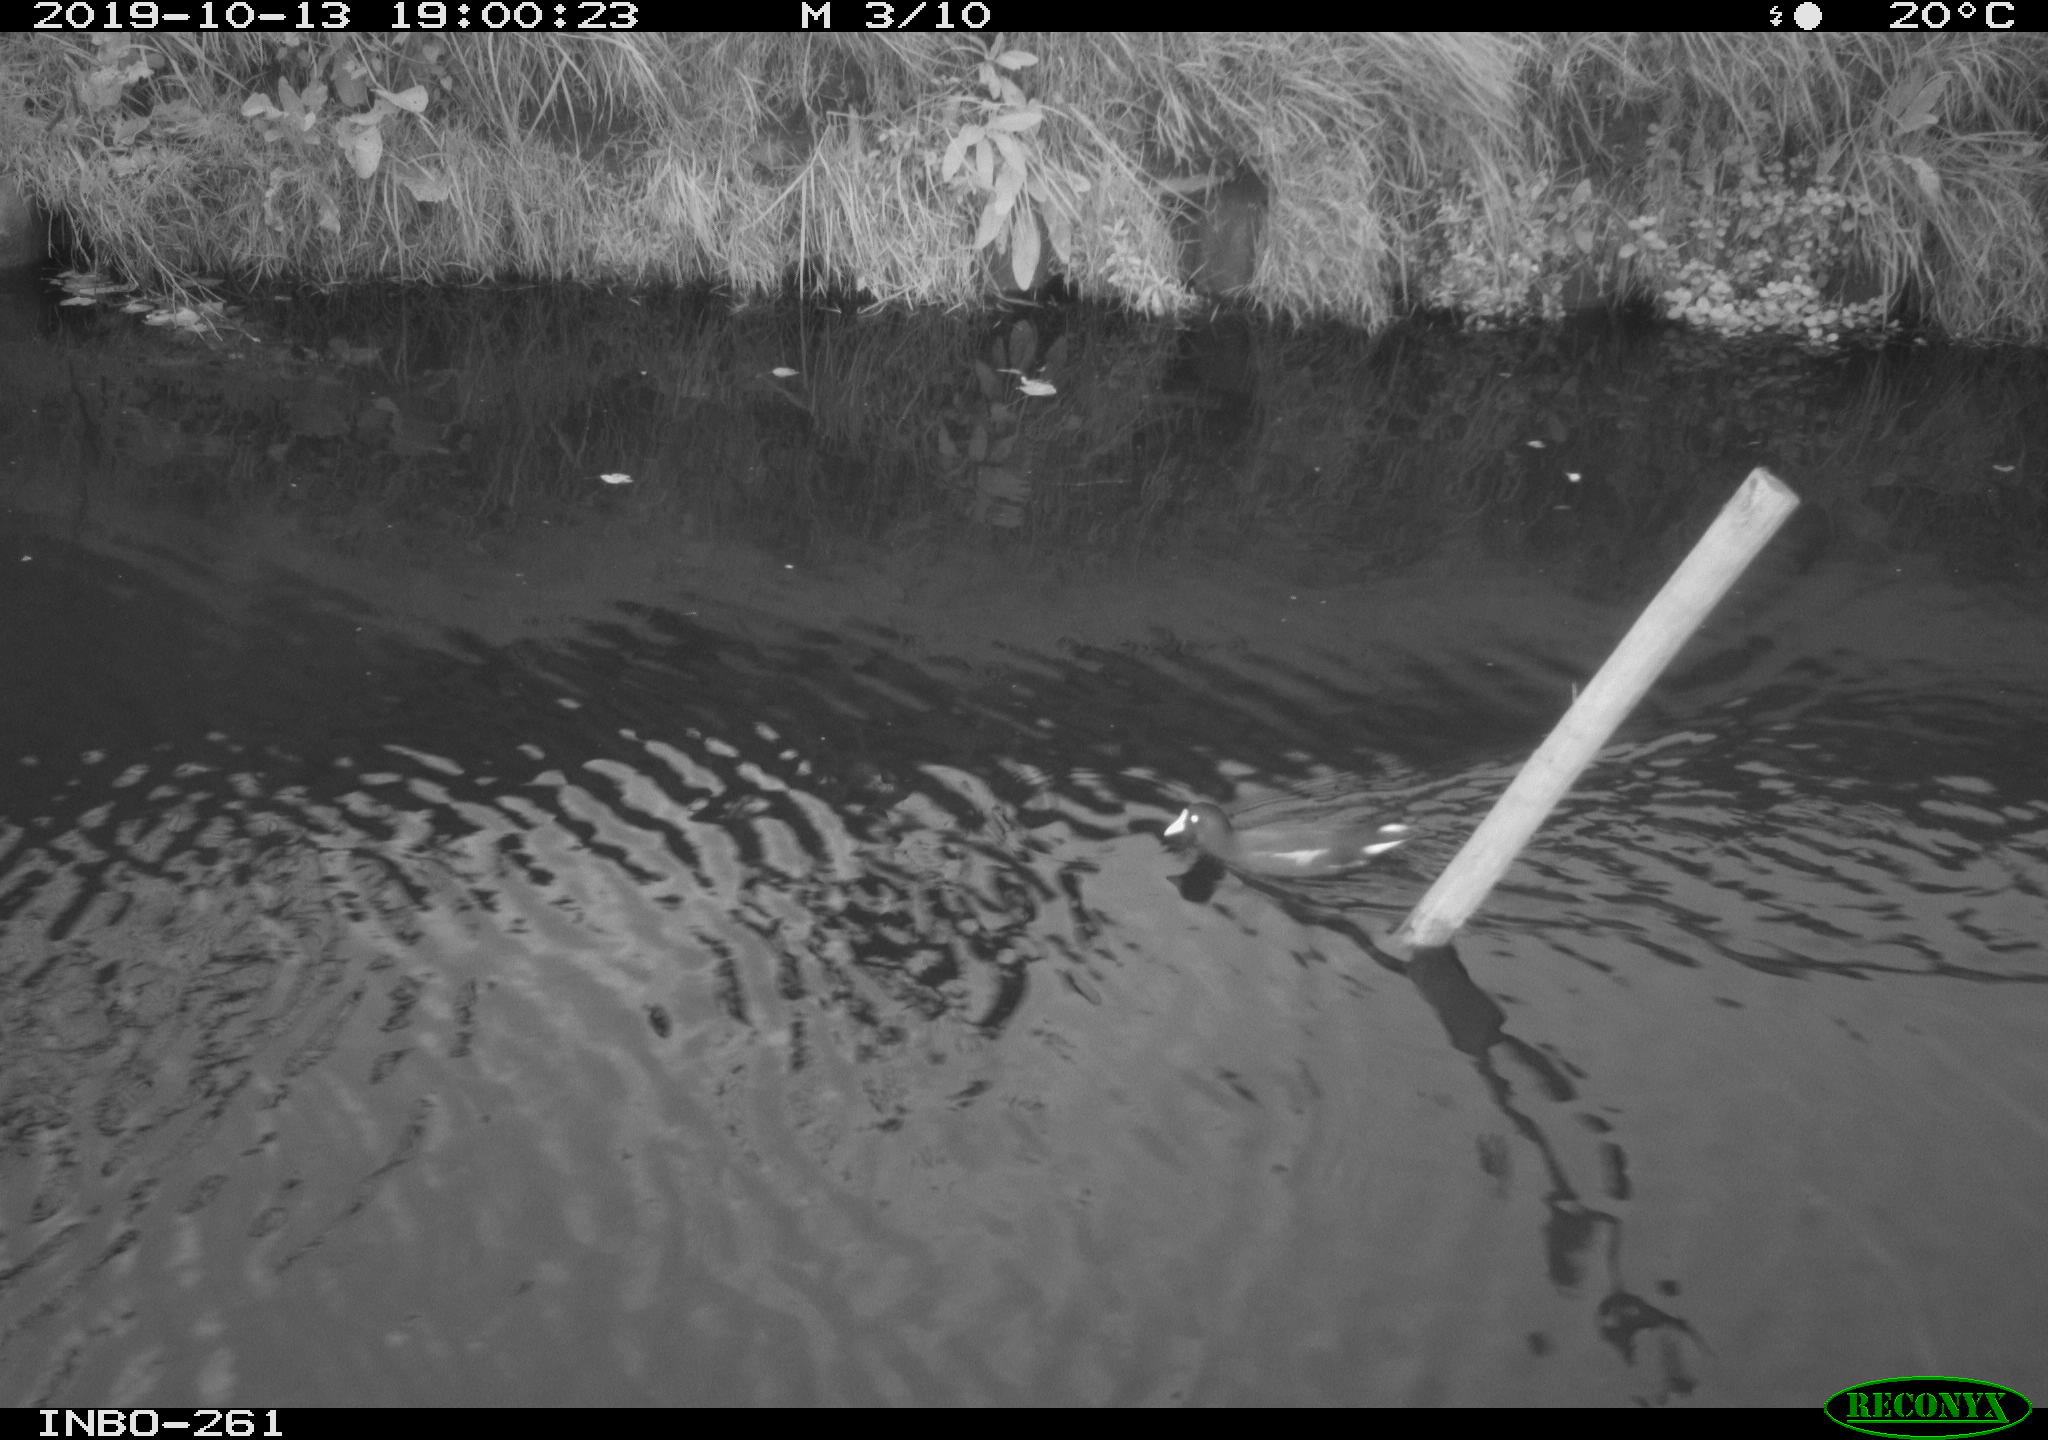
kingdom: Animalia
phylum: Chordata
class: Aves
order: Gruiformes
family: Rallidae
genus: Gallinula
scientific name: Gallinula chloropus
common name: Common moorhen
